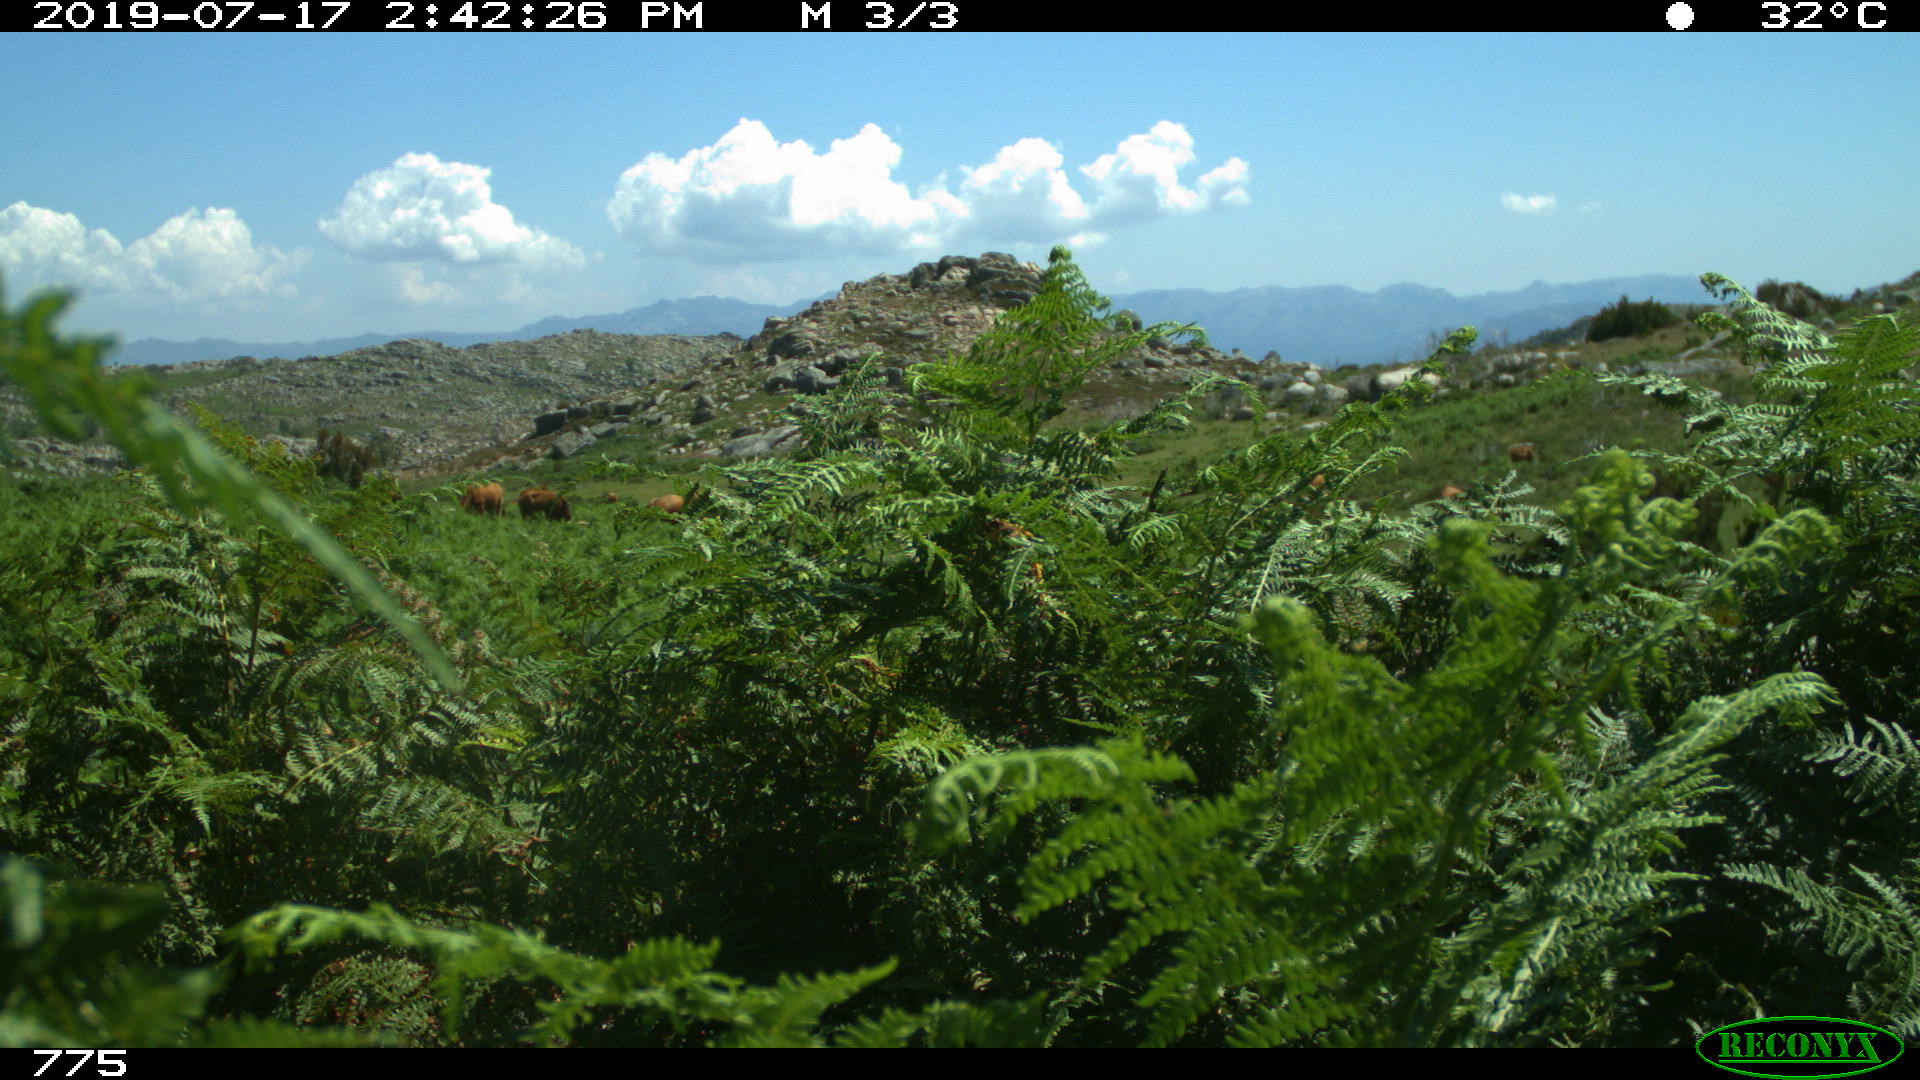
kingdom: Animalia
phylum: Chordata
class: Mammalia
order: Artiodactyla
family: Bovidae
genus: Bos
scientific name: Bos taurus
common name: Domesticated cattle
